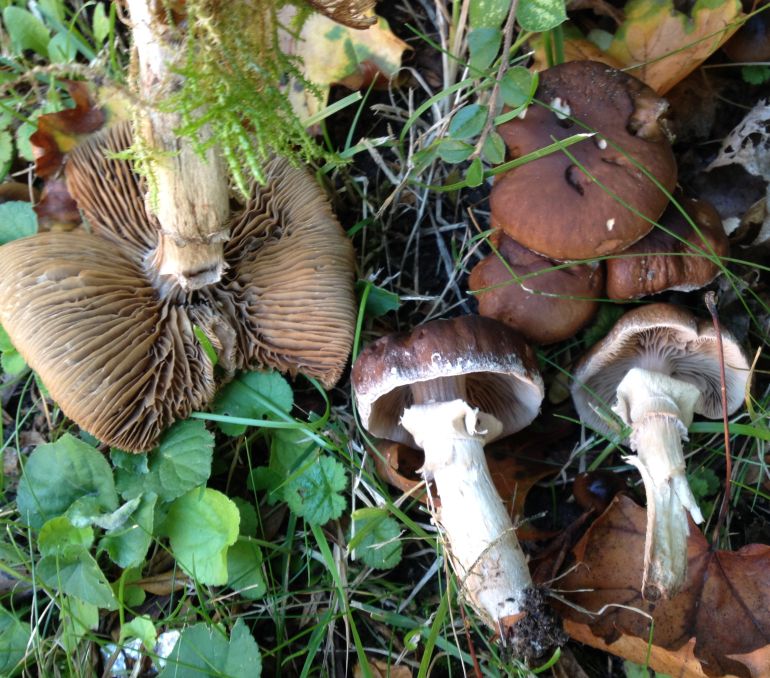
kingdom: Fungi
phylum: Basidiomycota
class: Agaricomycetes
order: Agaricales
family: Tubariaceae
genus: Cyclocybe
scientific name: Cyclocybe erebia
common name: mørk agerhat
